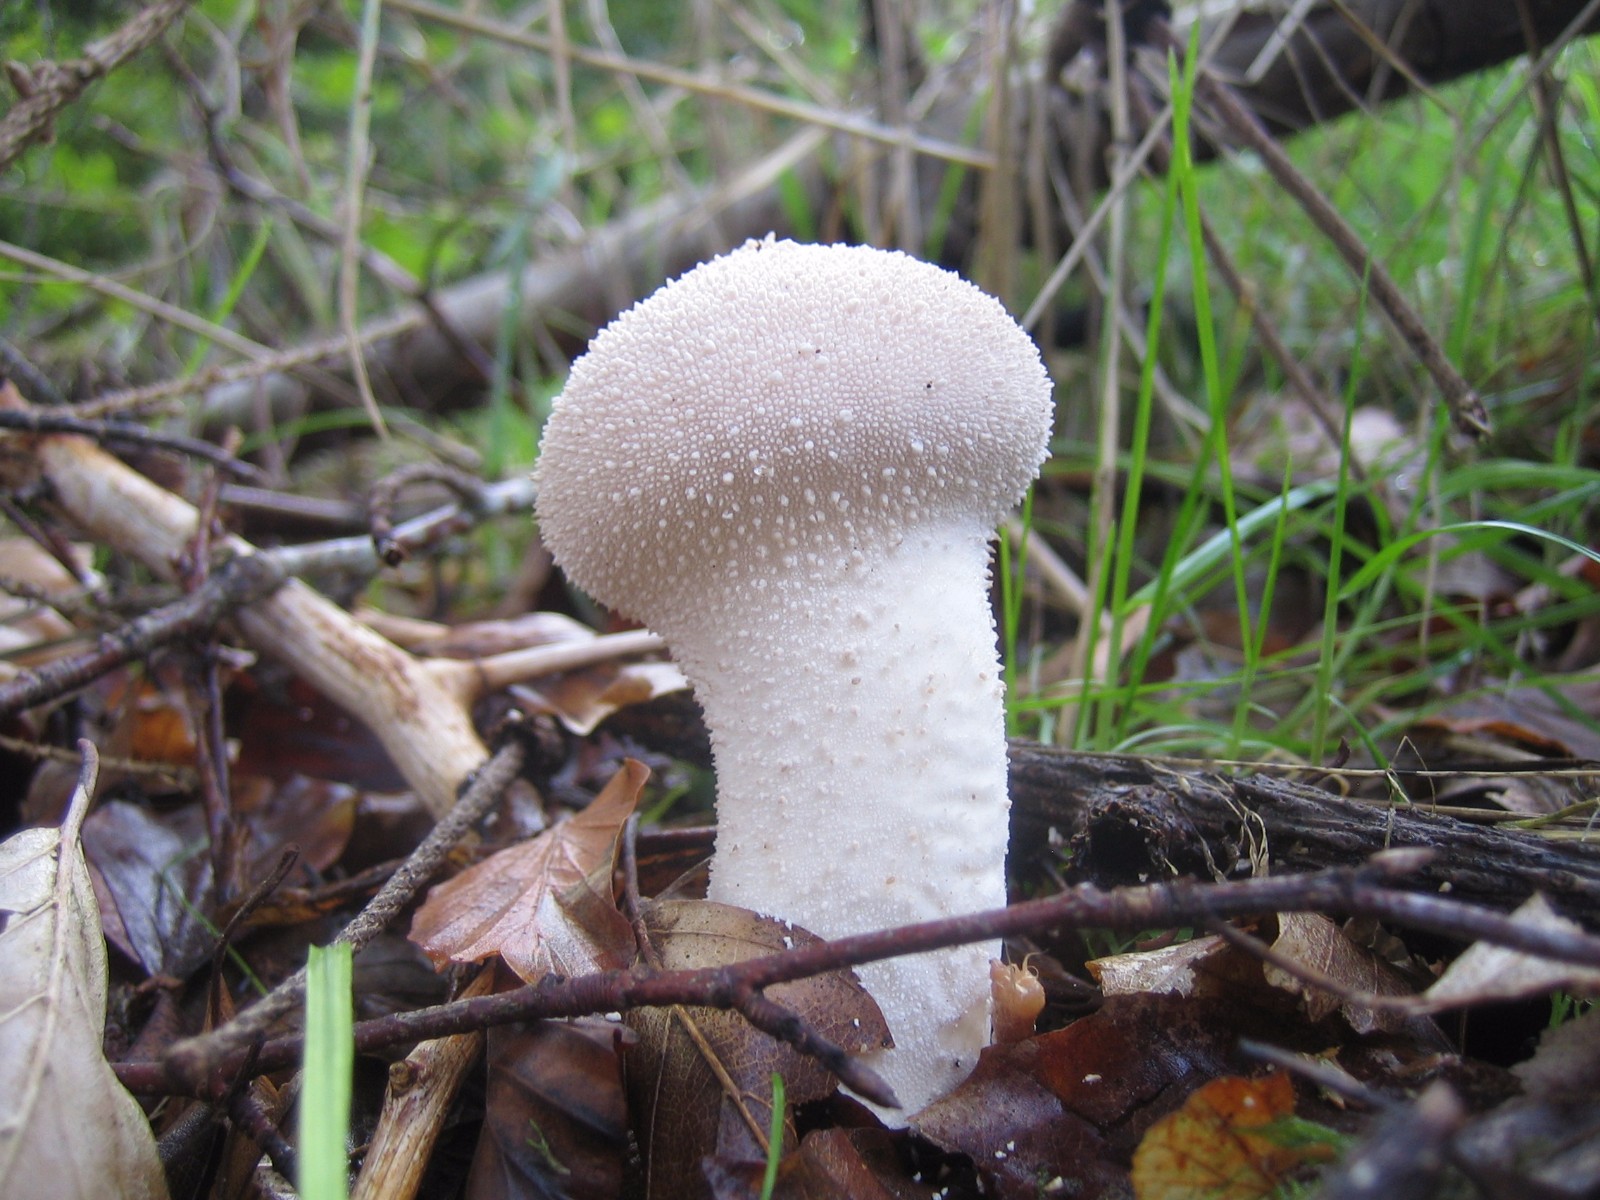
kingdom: Fungi
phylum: Basidiomycota
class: Agaricomycetes
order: Agaricales
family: Lycoperdaceae
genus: Lycoperdon
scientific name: Lycoperdon perlatum
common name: krystal-støvbold
